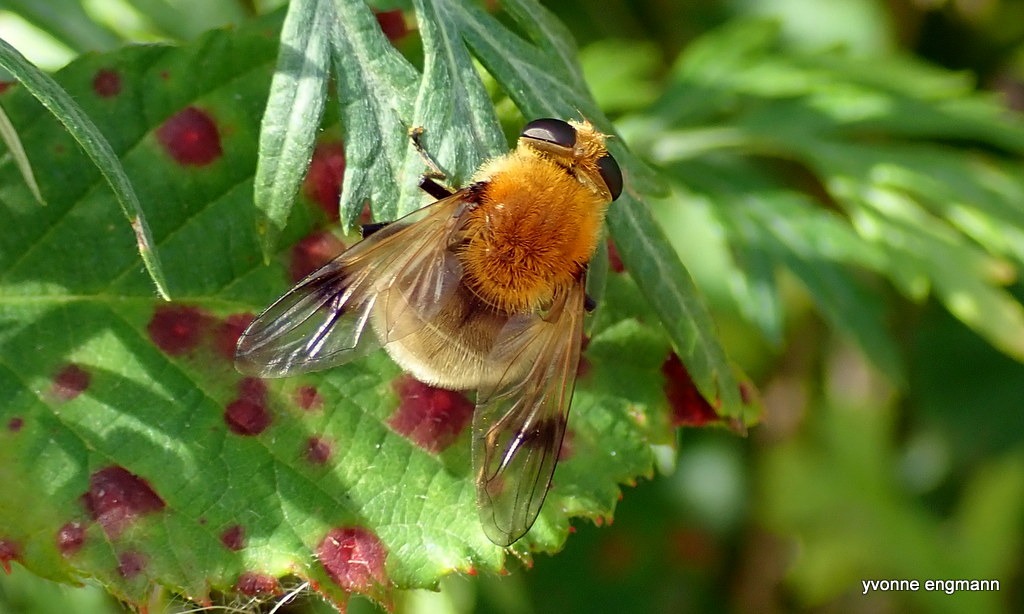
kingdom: Animalia
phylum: Arthropoda
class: Insecta
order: Diptera
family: Syrphidae
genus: Sericomyia
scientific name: Sericomyia superbiens
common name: Brun bjørnesvirreflue
